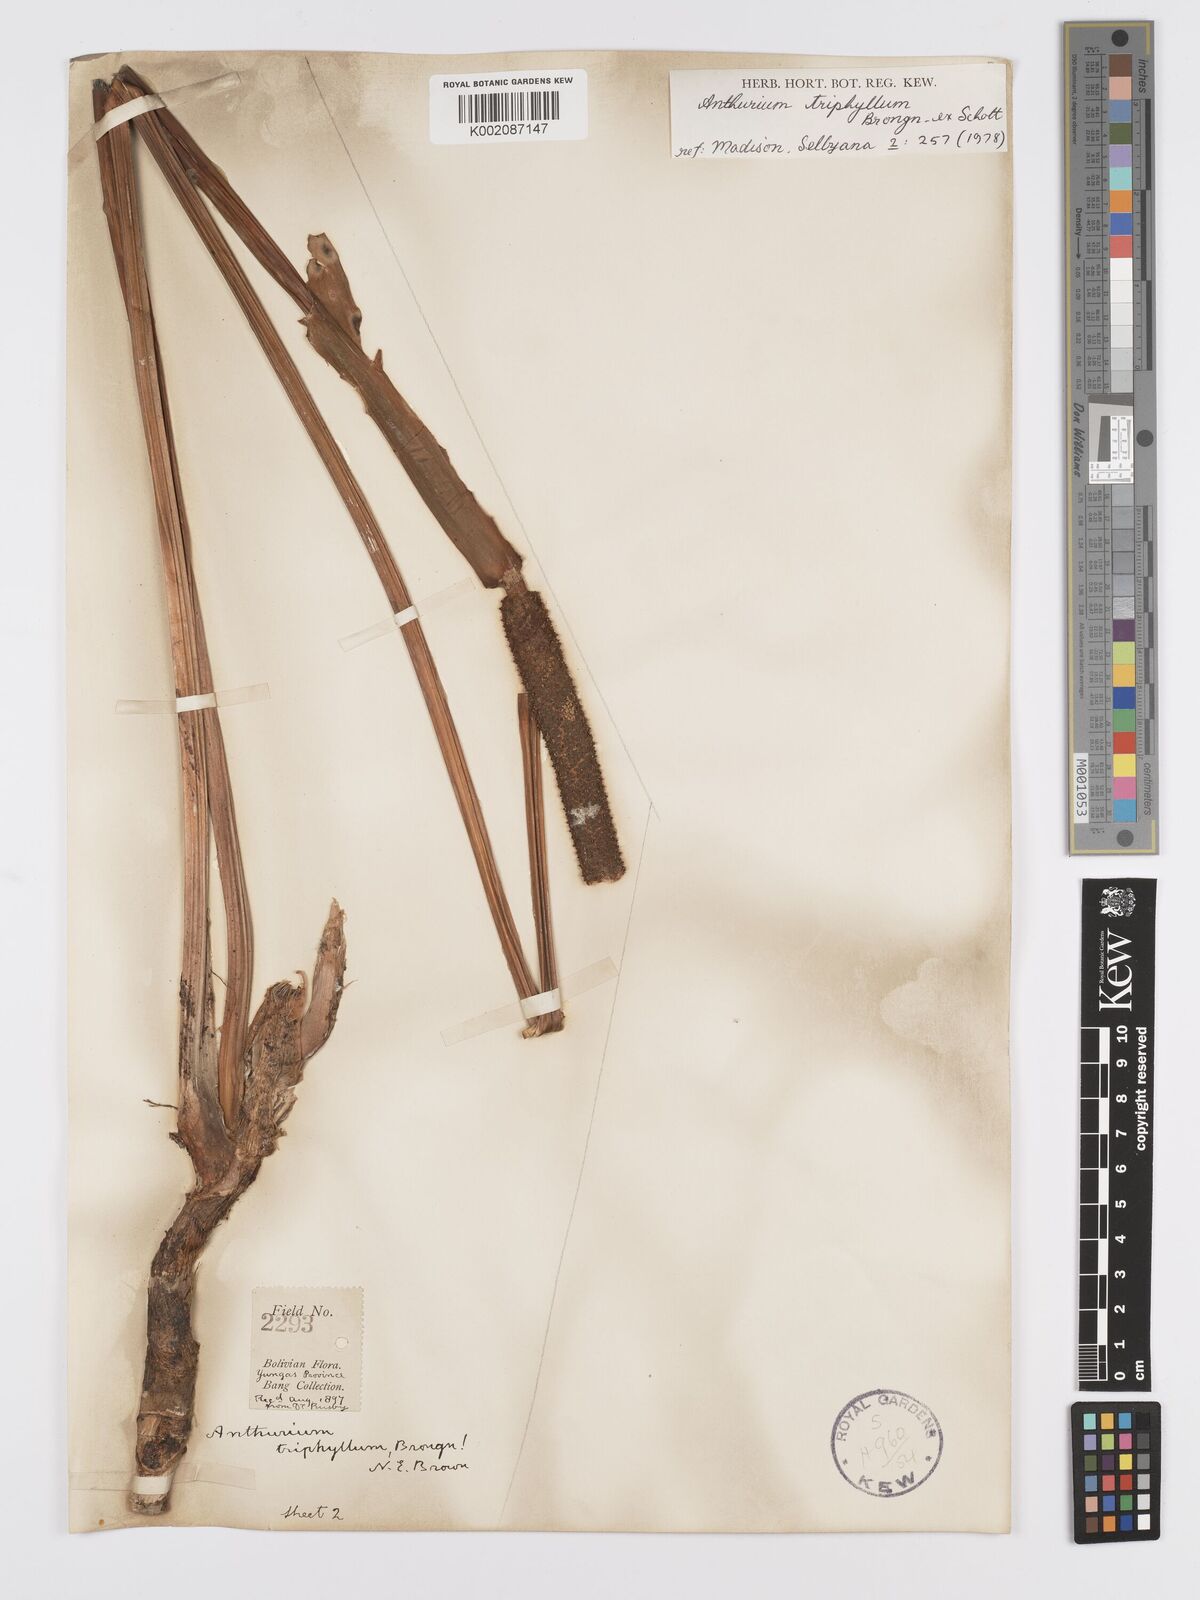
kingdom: Plantae
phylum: Tracheophyta
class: Liliopsida
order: Alismatales
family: Araceae
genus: Anthurium
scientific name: Anthurium triphyllum
